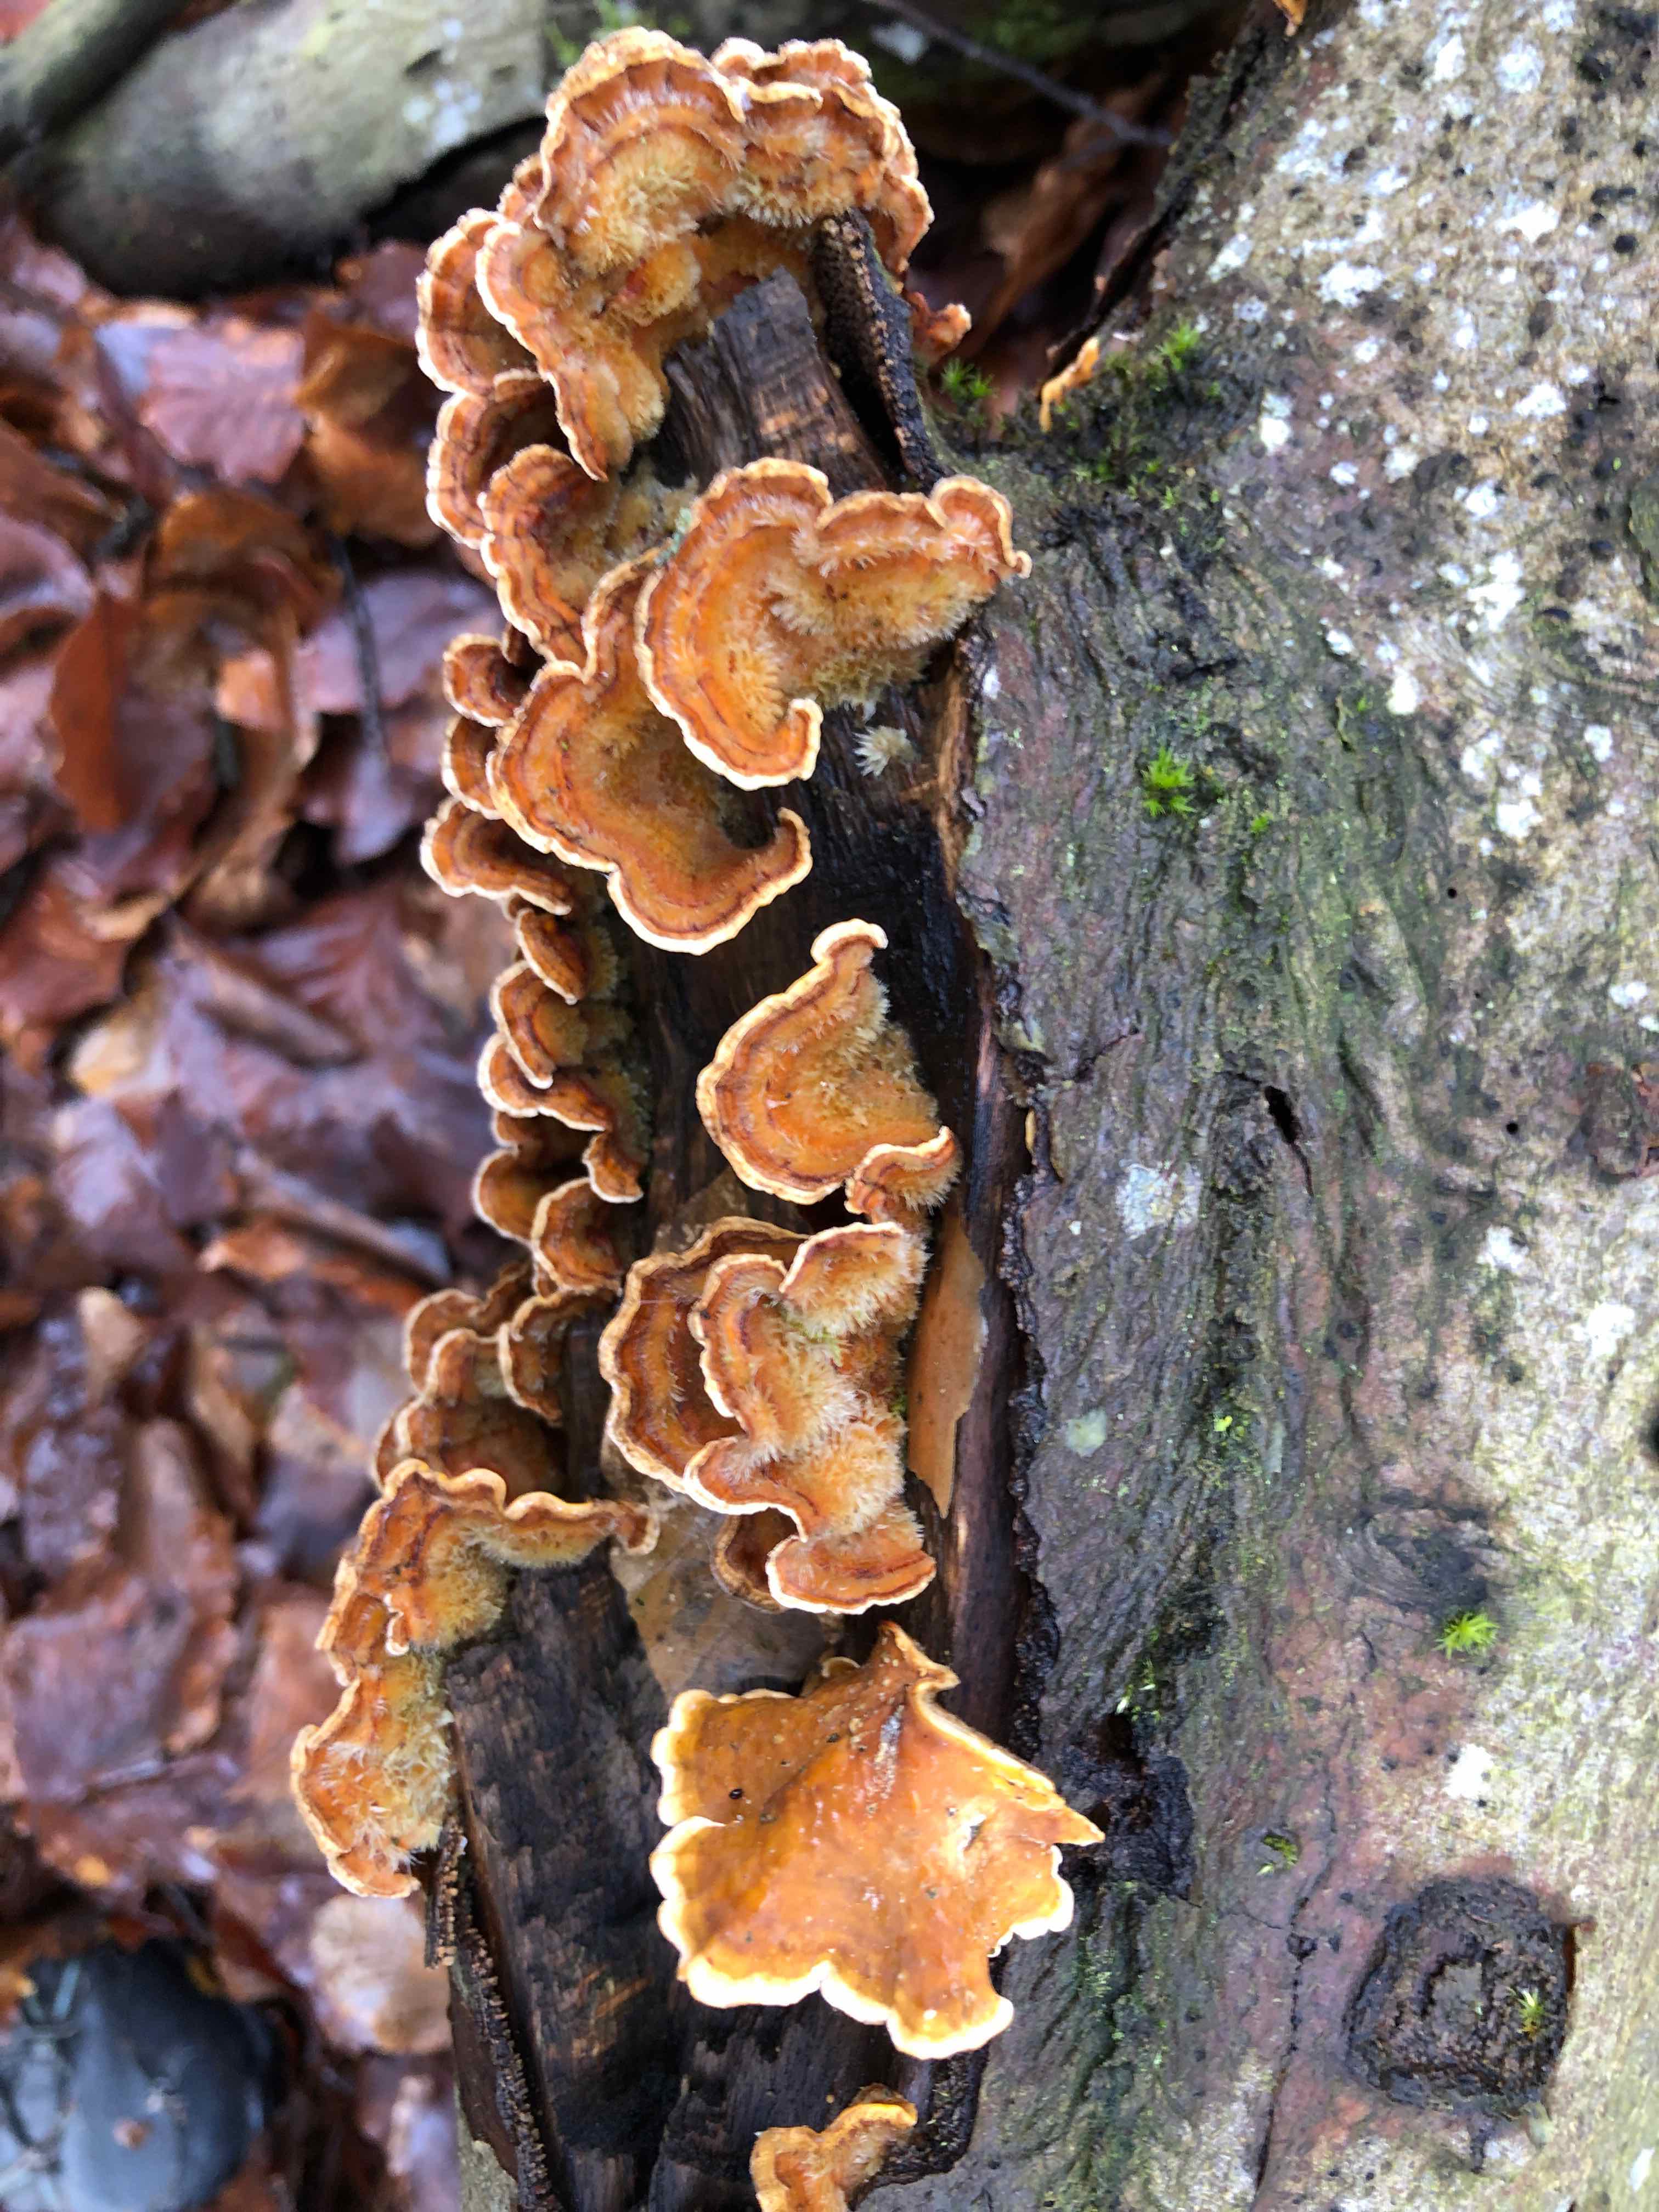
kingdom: Fungi
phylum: Basidiomycota
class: Agaricomycetes
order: Russulales
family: Stereaceae
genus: Stereum
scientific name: Stereum hirsutum
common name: håret lædersvamp
